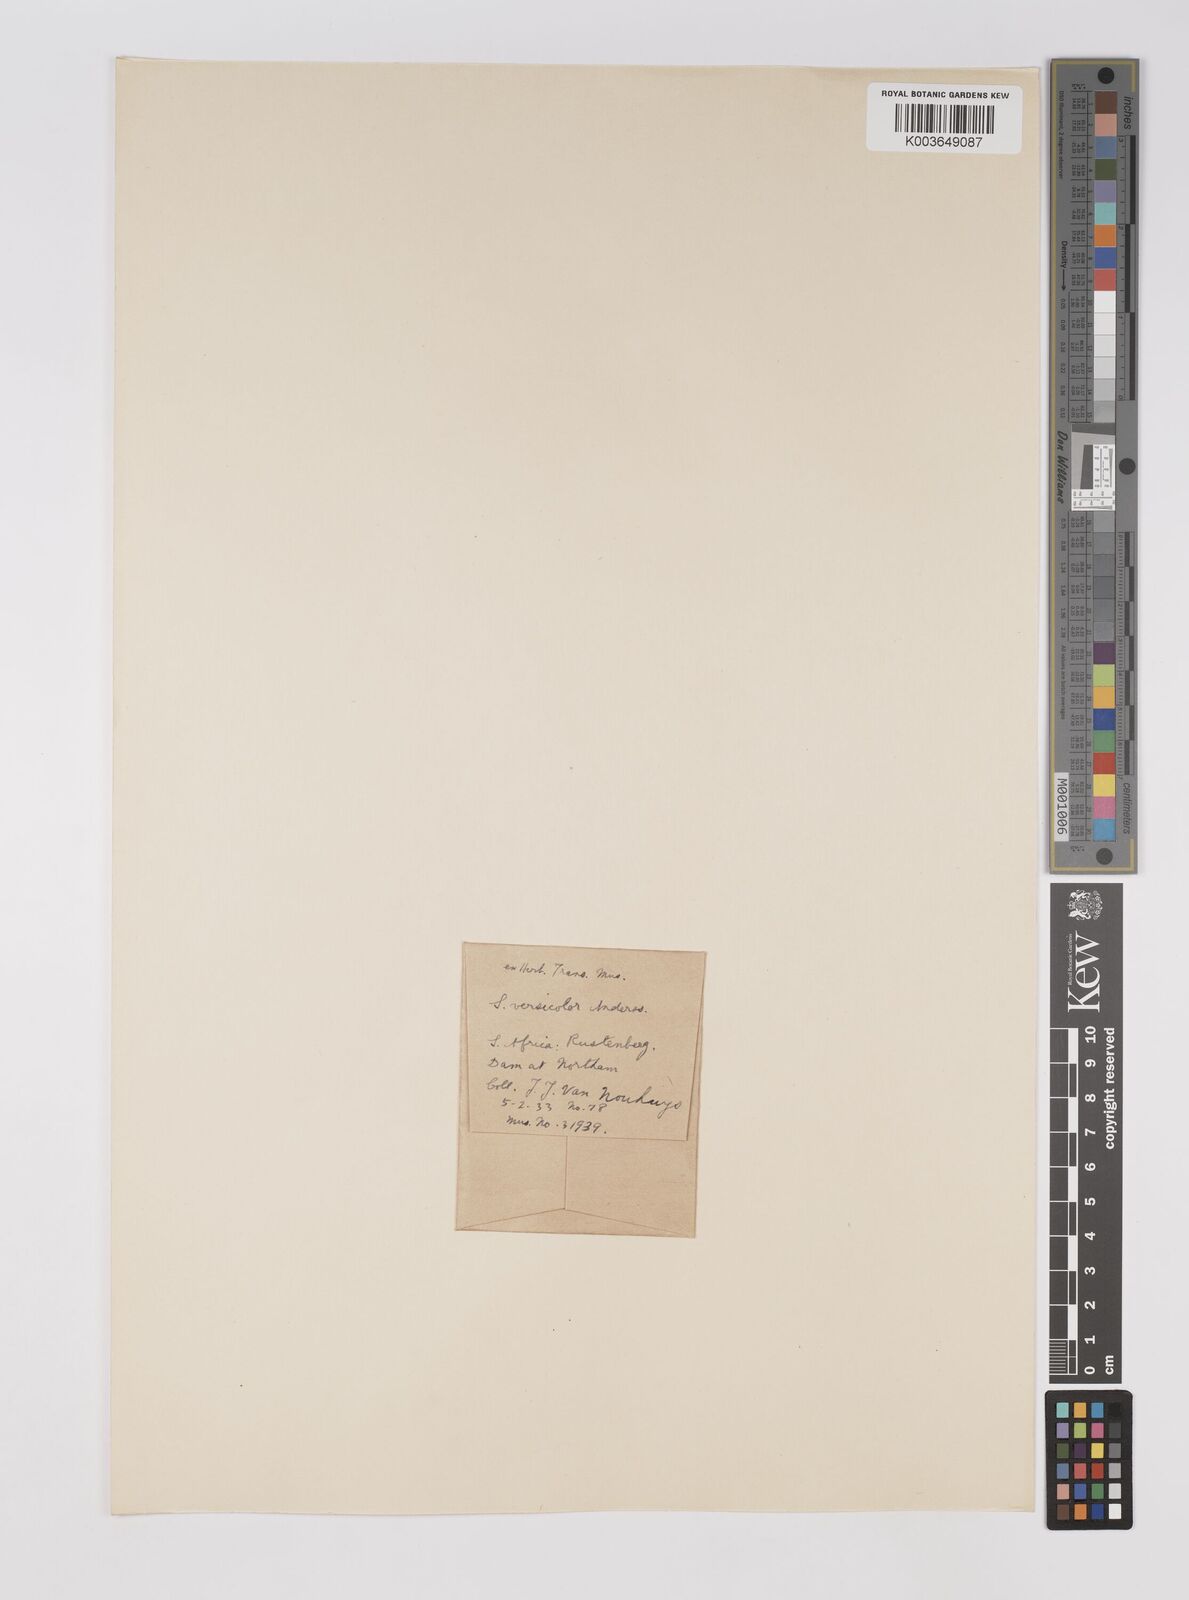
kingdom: Plantae
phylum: Tracheophyta
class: Liliopsida
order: Poales
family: Poaceae
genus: Sarga
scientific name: Sarga versicolor
